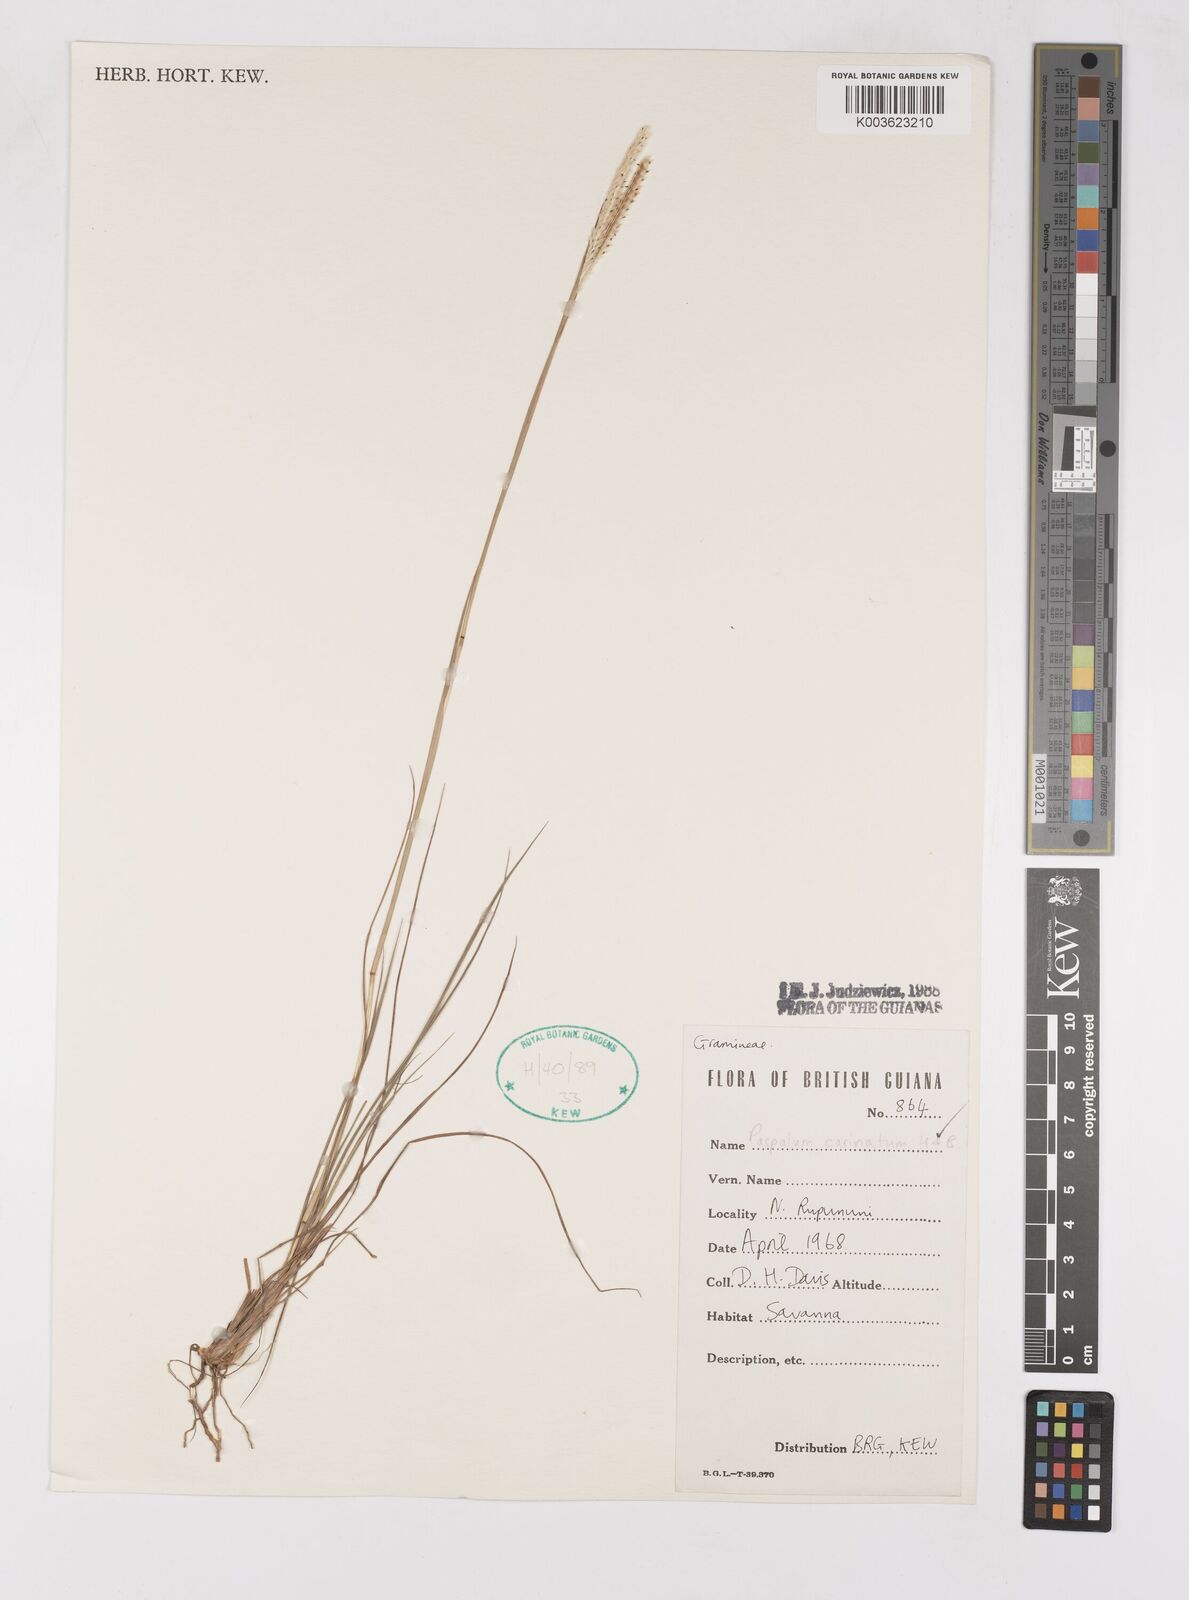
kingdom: Plantae
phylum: Tracheophyta
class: Liliopsida
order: Poales
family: Poaceae
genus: Paspalum
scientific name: Paspalum carinatum
